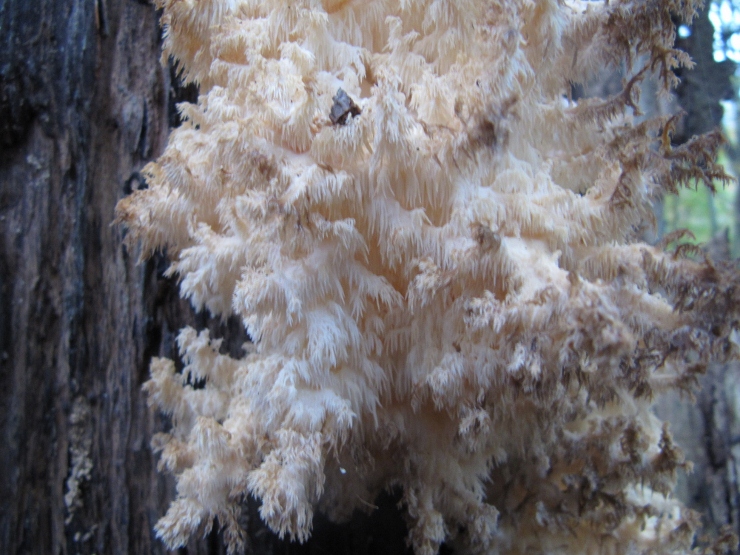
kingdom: Fungi
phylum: Basidiomycota
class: Agaricomycetes
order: Russulales
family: Hericiaceae
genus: Hericium
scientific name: Hericium coralloides
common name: koralpigsvamp
